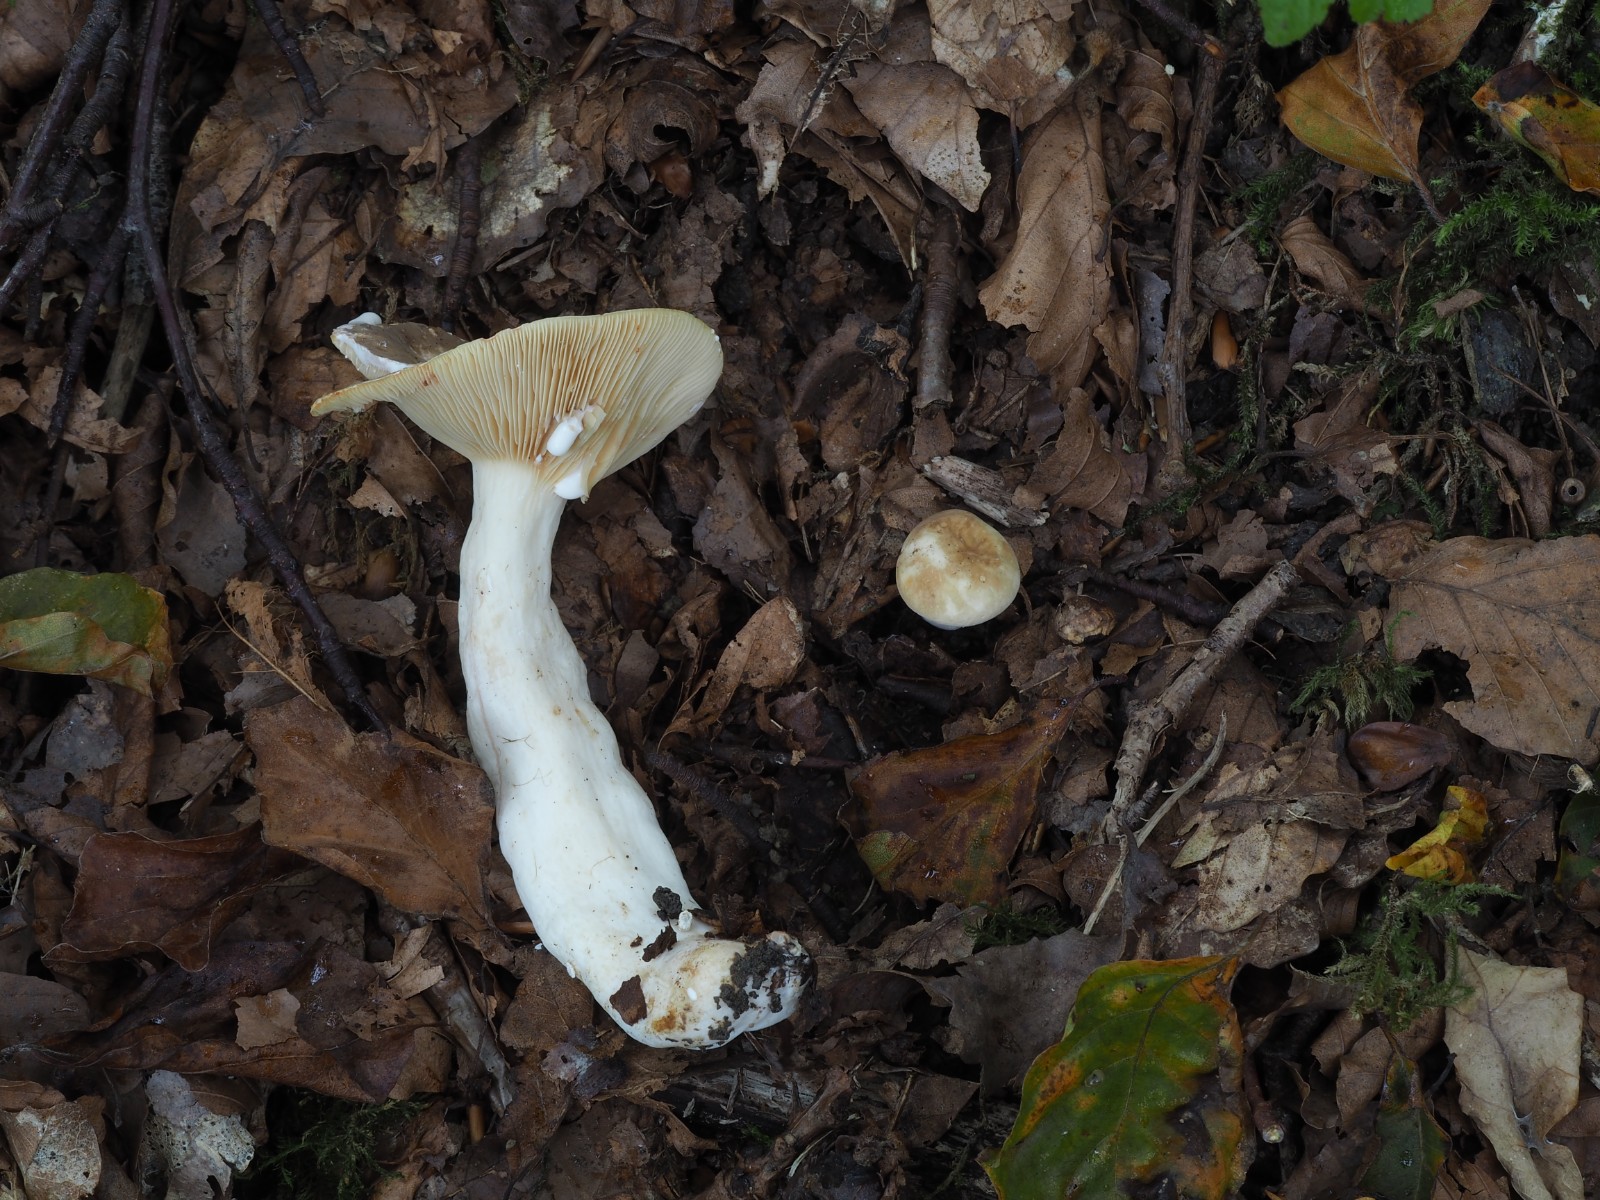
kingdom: Fungi
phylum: Basidiomycota
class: Agaricomycetes
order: Russulales
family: Russulaceae
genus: Lactarius
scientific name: Lactarius azonites
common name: røggrå mælkehat
